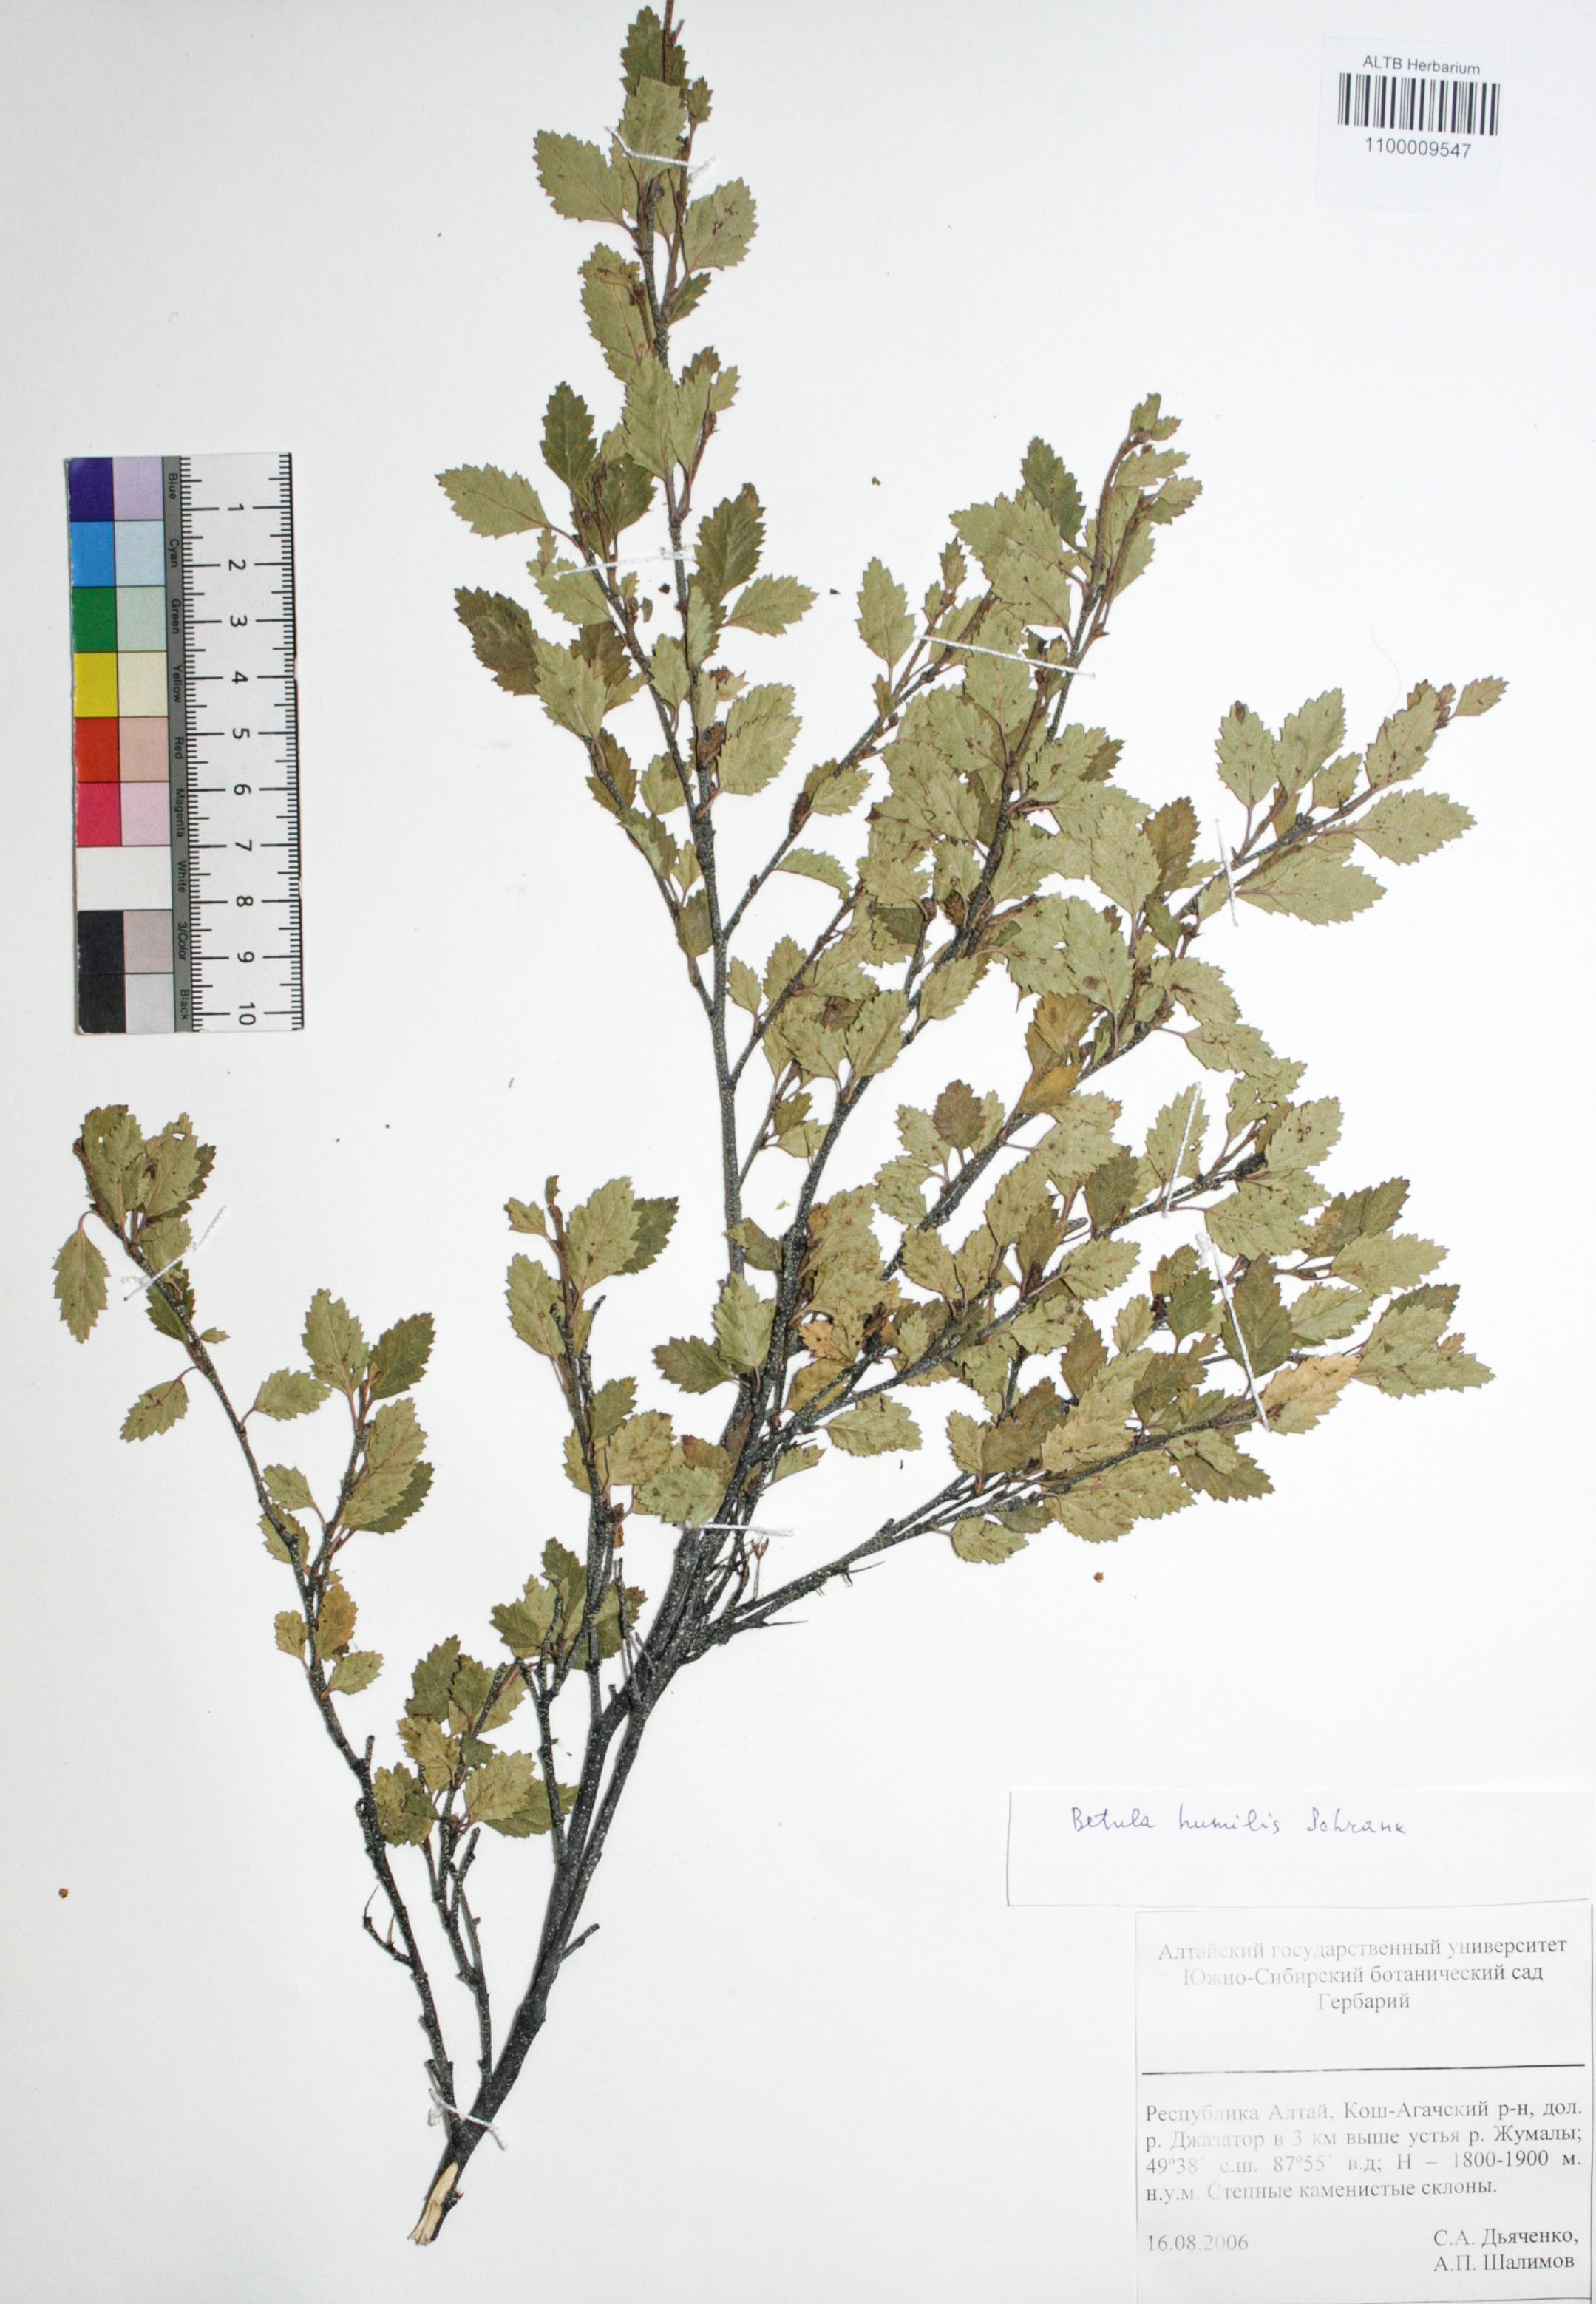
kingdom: Plantae
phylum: Tracheophyta
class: Magnoliopsida
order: Fagales
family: Betulaceae
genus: Betula
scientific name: Betula humilis
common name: Shrubby birch
